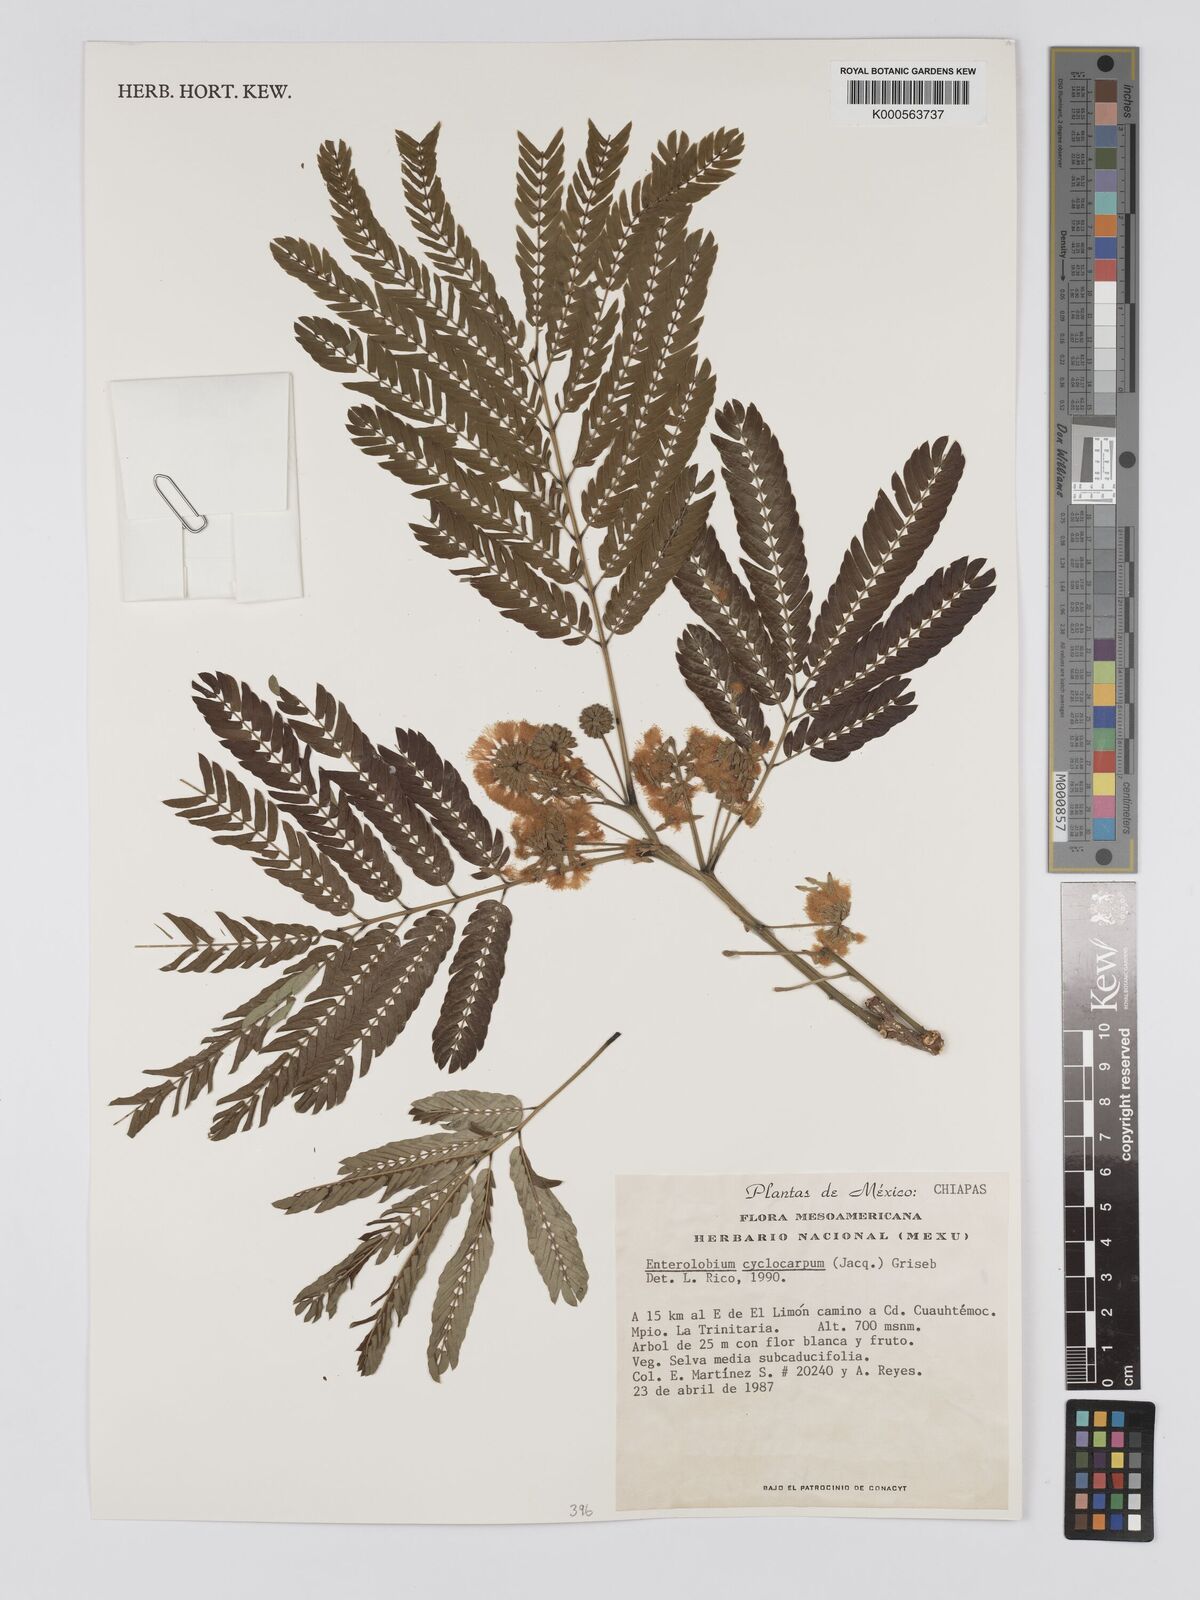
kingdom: Plantae
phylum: Tracheophyta
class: Magnoliopsida
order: Fabales
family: Fabaceae
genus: Enterolobium
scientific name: Enterolobium cyclocarpum
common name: Ear tree
